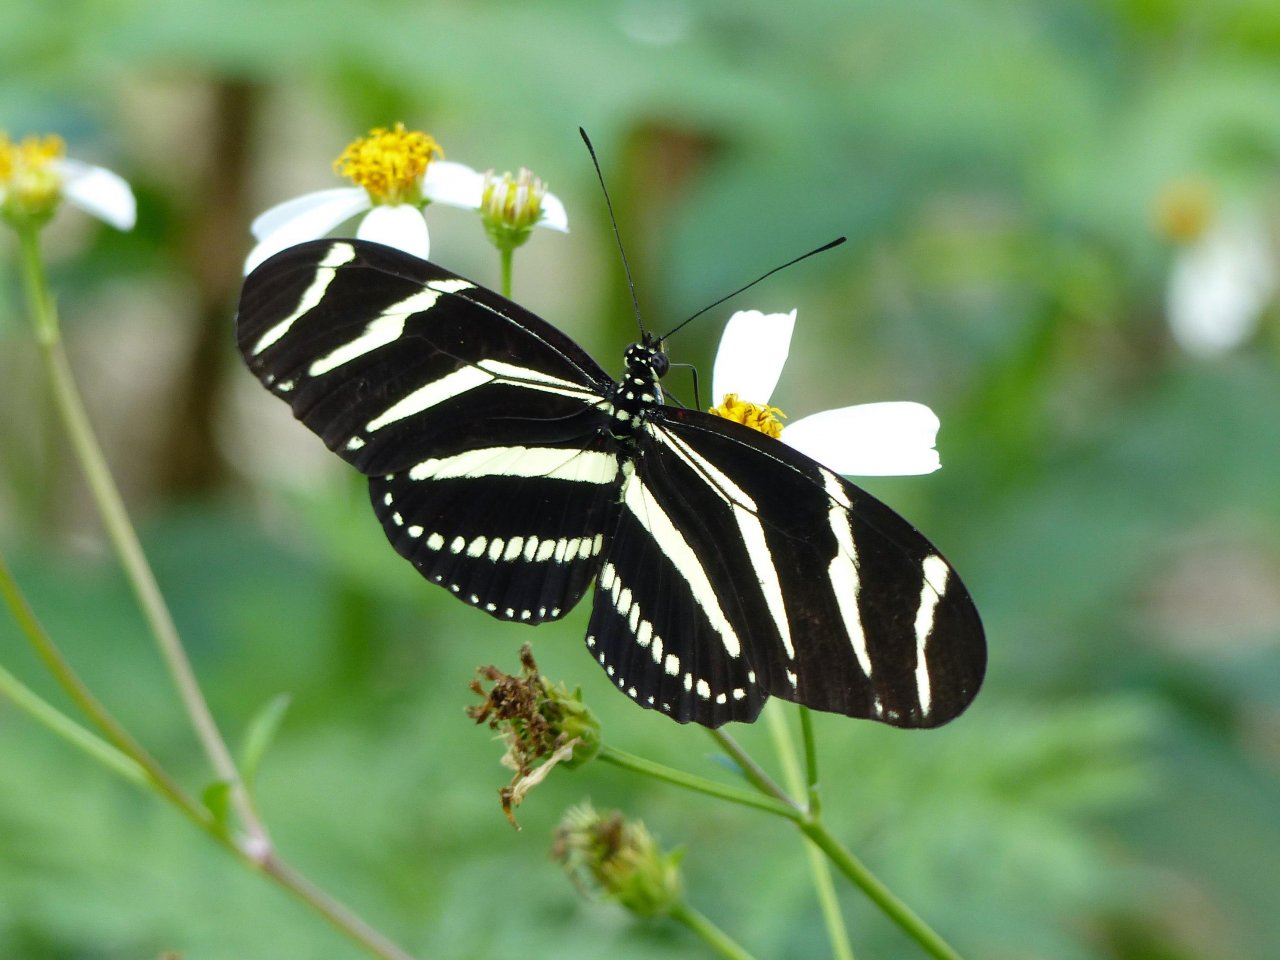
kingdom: Animalia
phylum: Arthropoda
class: Insecta
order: Lepidoptera
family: Nymphalidae
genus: Heliconius
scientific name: Heliconius charithonia
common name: Zebra Longwing
